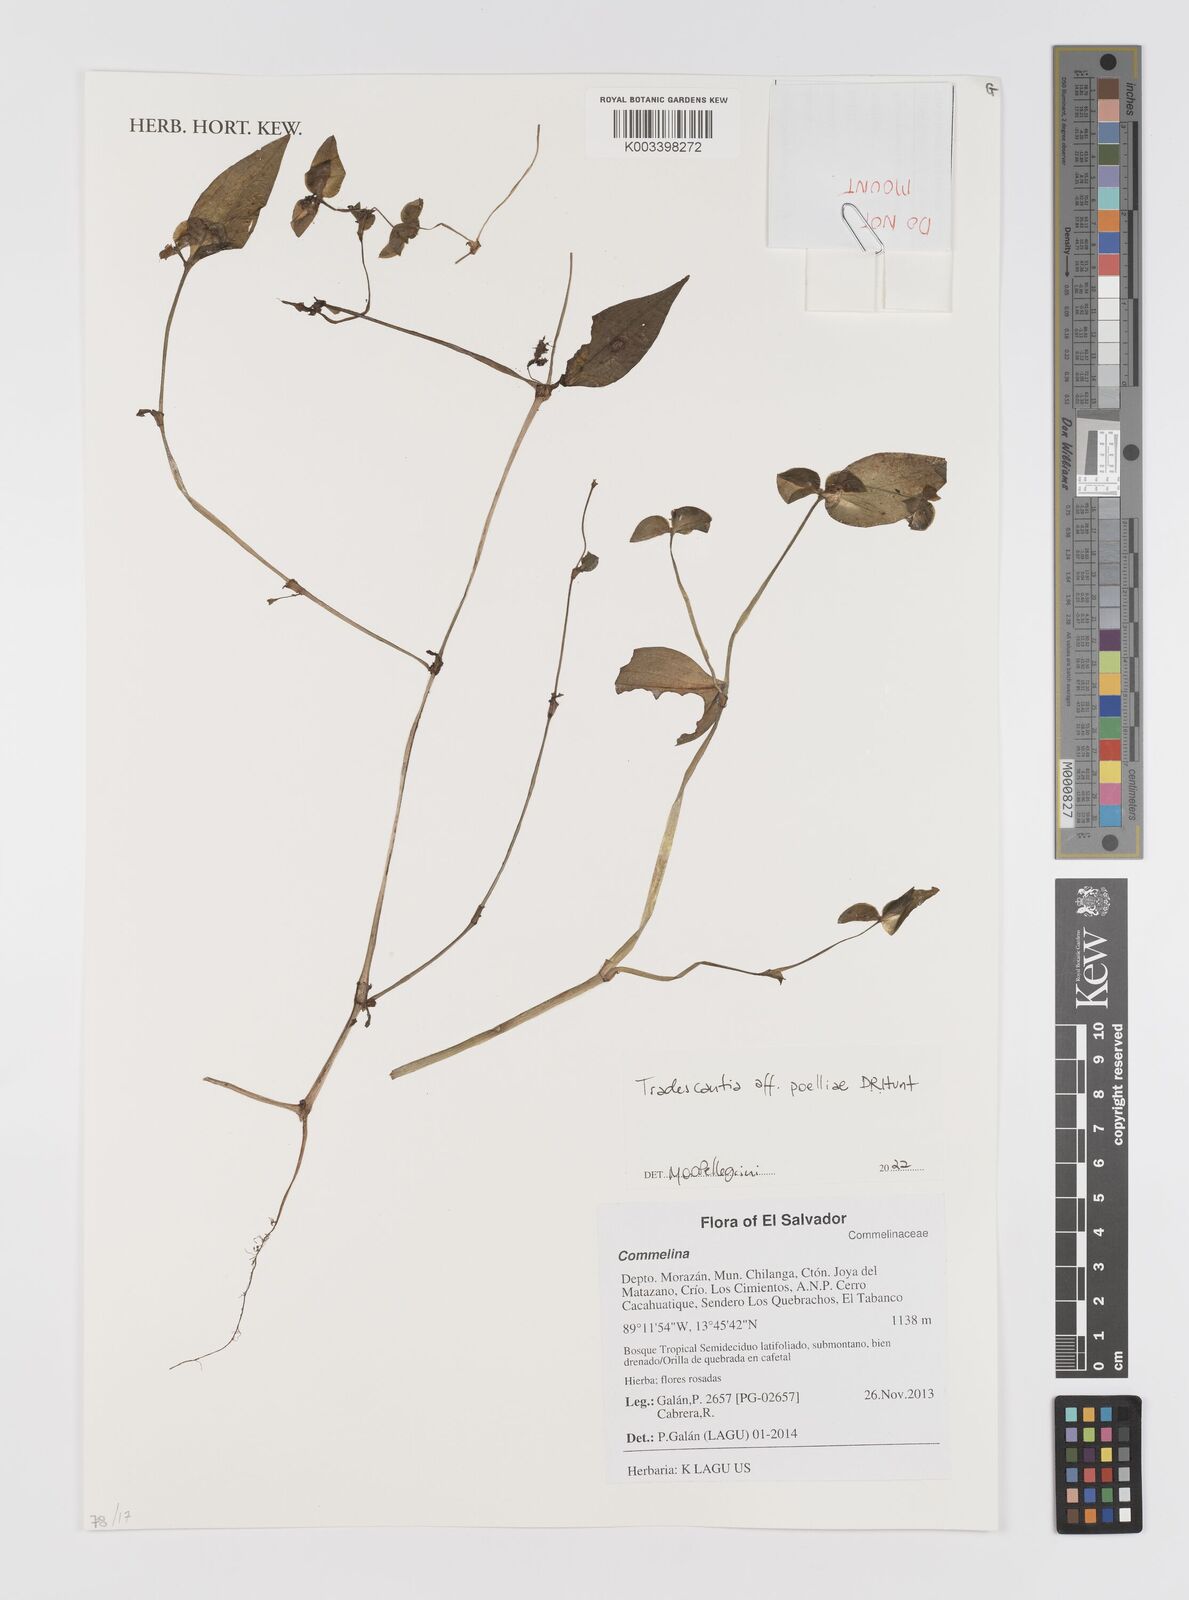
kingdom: Plantae
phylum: Tracheophyta
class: Liliopsida
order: Commelinales
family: Commelinaceae
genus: Tradescantia
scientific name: Tradescantia poelliae
